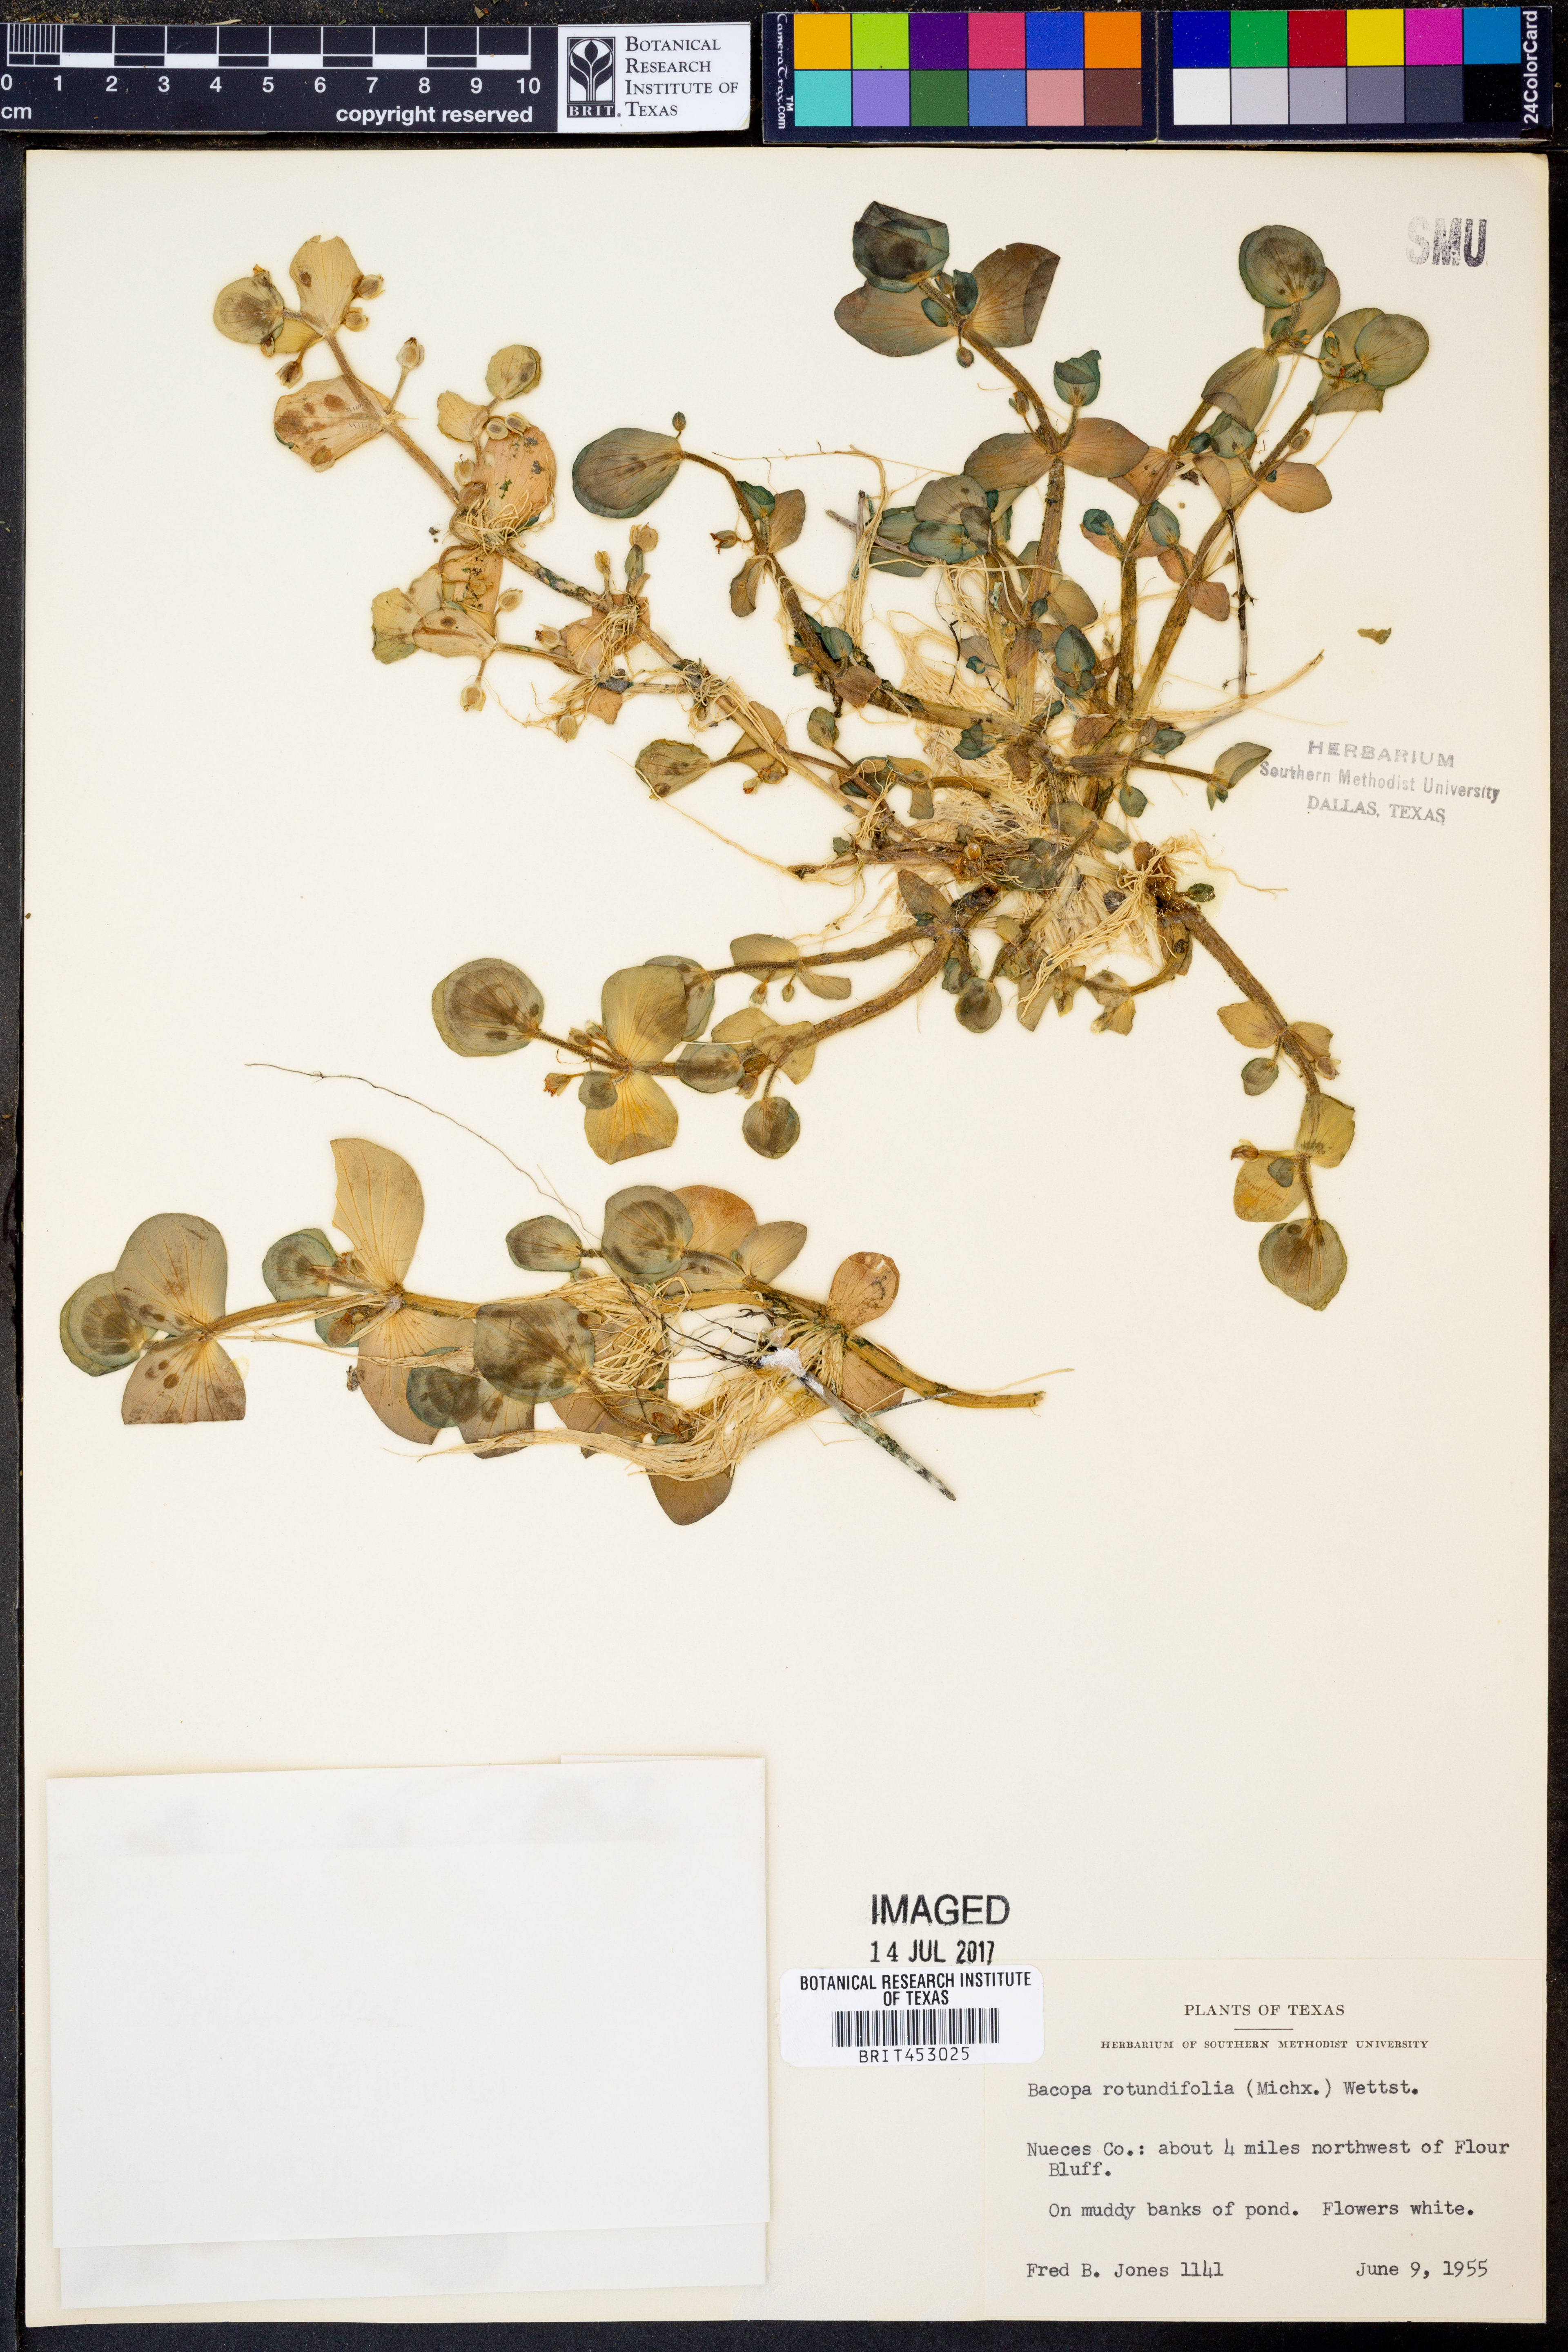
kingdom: Plantae
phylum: Tracheophyta
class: Magnoliopsida
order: Lamiales
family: Plantaginaceae
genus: Bacopa
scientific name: Bacopa rotundifolia
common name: Disc water hyssop
